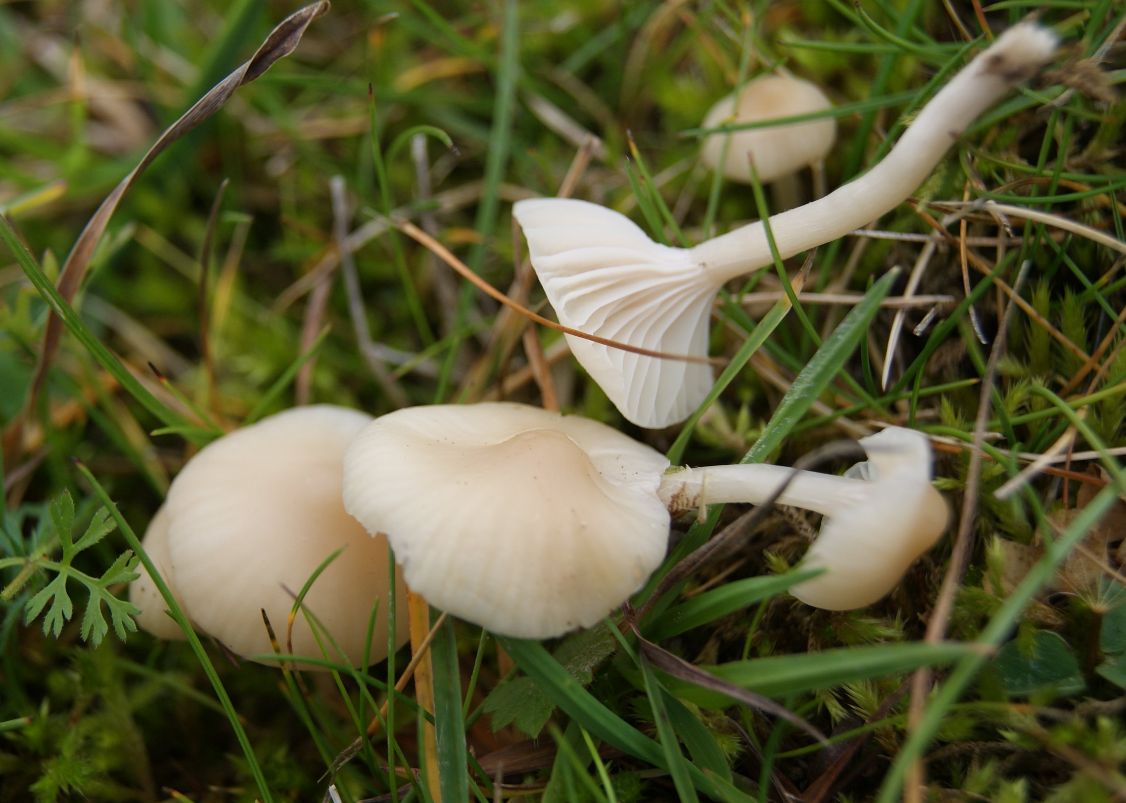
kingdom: Fungi
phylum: Basidiomycota
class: Agaricomycetes
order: Agaricales
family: Hygrophoraceae
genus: Cuphophyllus
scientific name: Cuphophyllus virgineus
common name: snehvid vokshat
